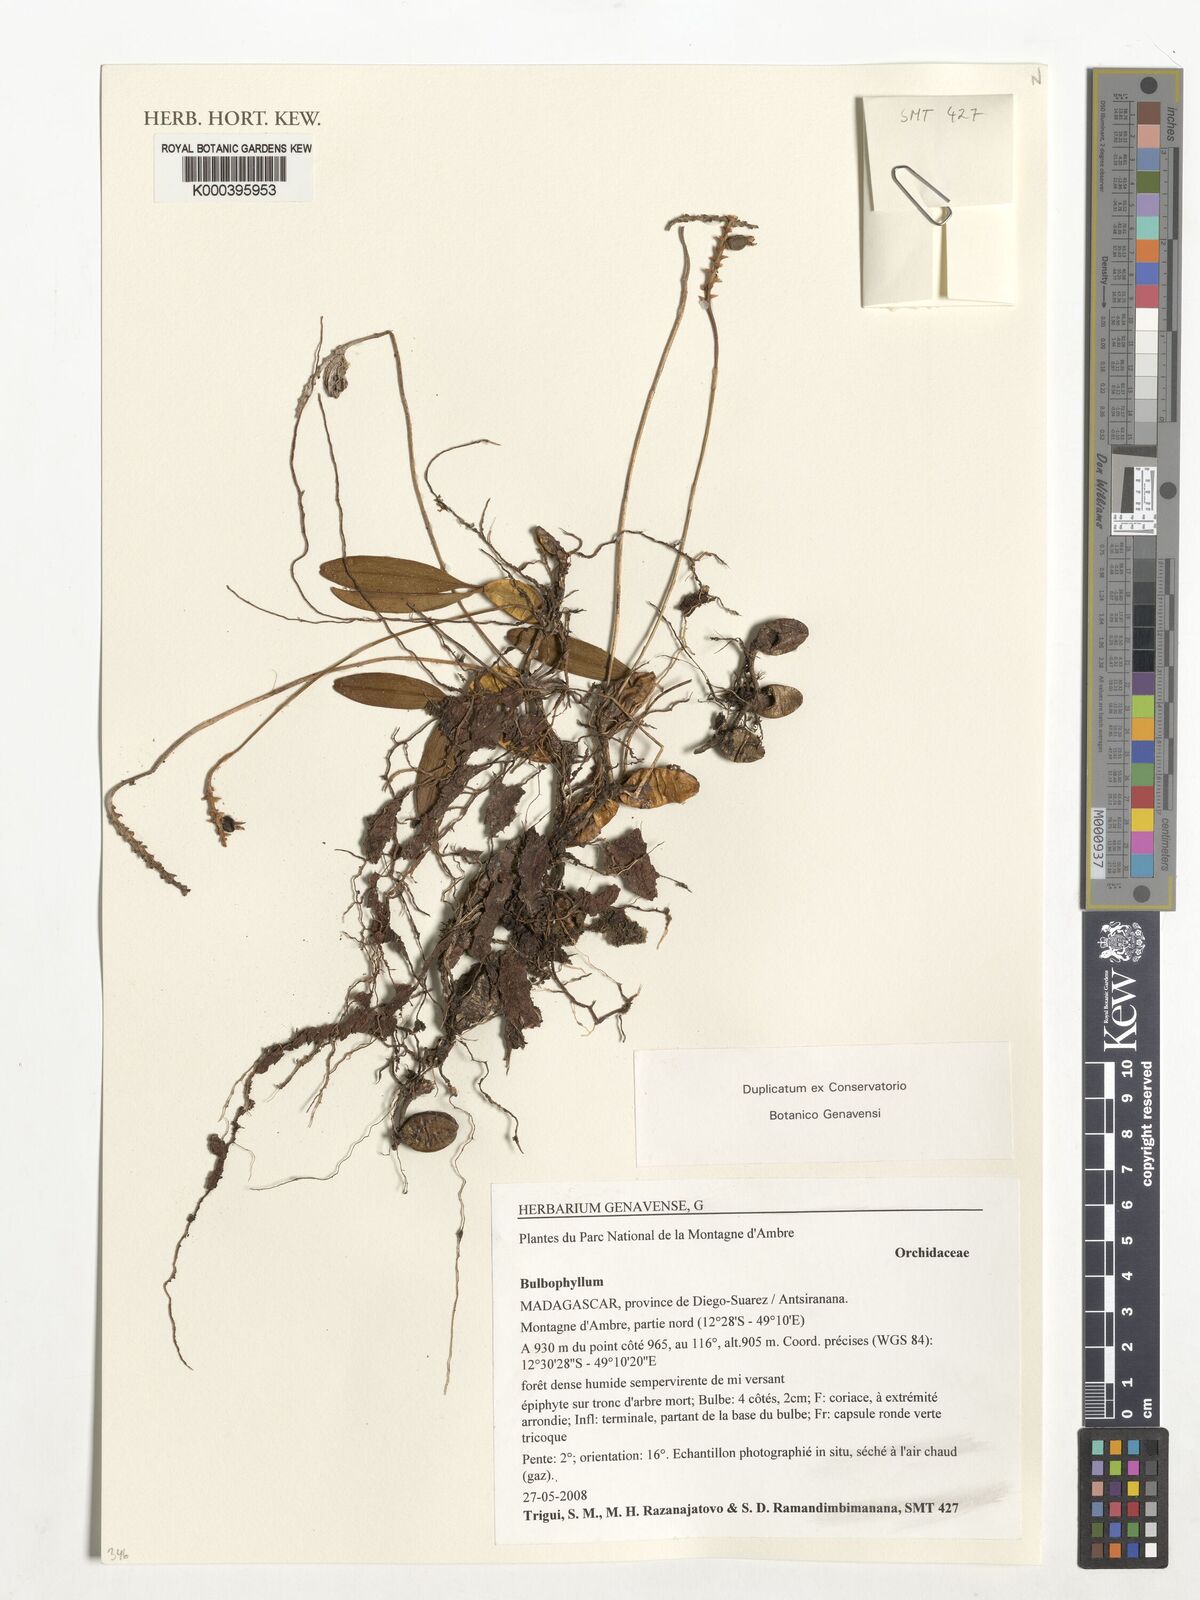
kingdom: Plantae
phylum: Tracheophyta
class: Liliopsida
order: Asparagales
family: Orchidaceae
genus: Bulbophyllum
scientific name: Bulbophyllum lucidum
